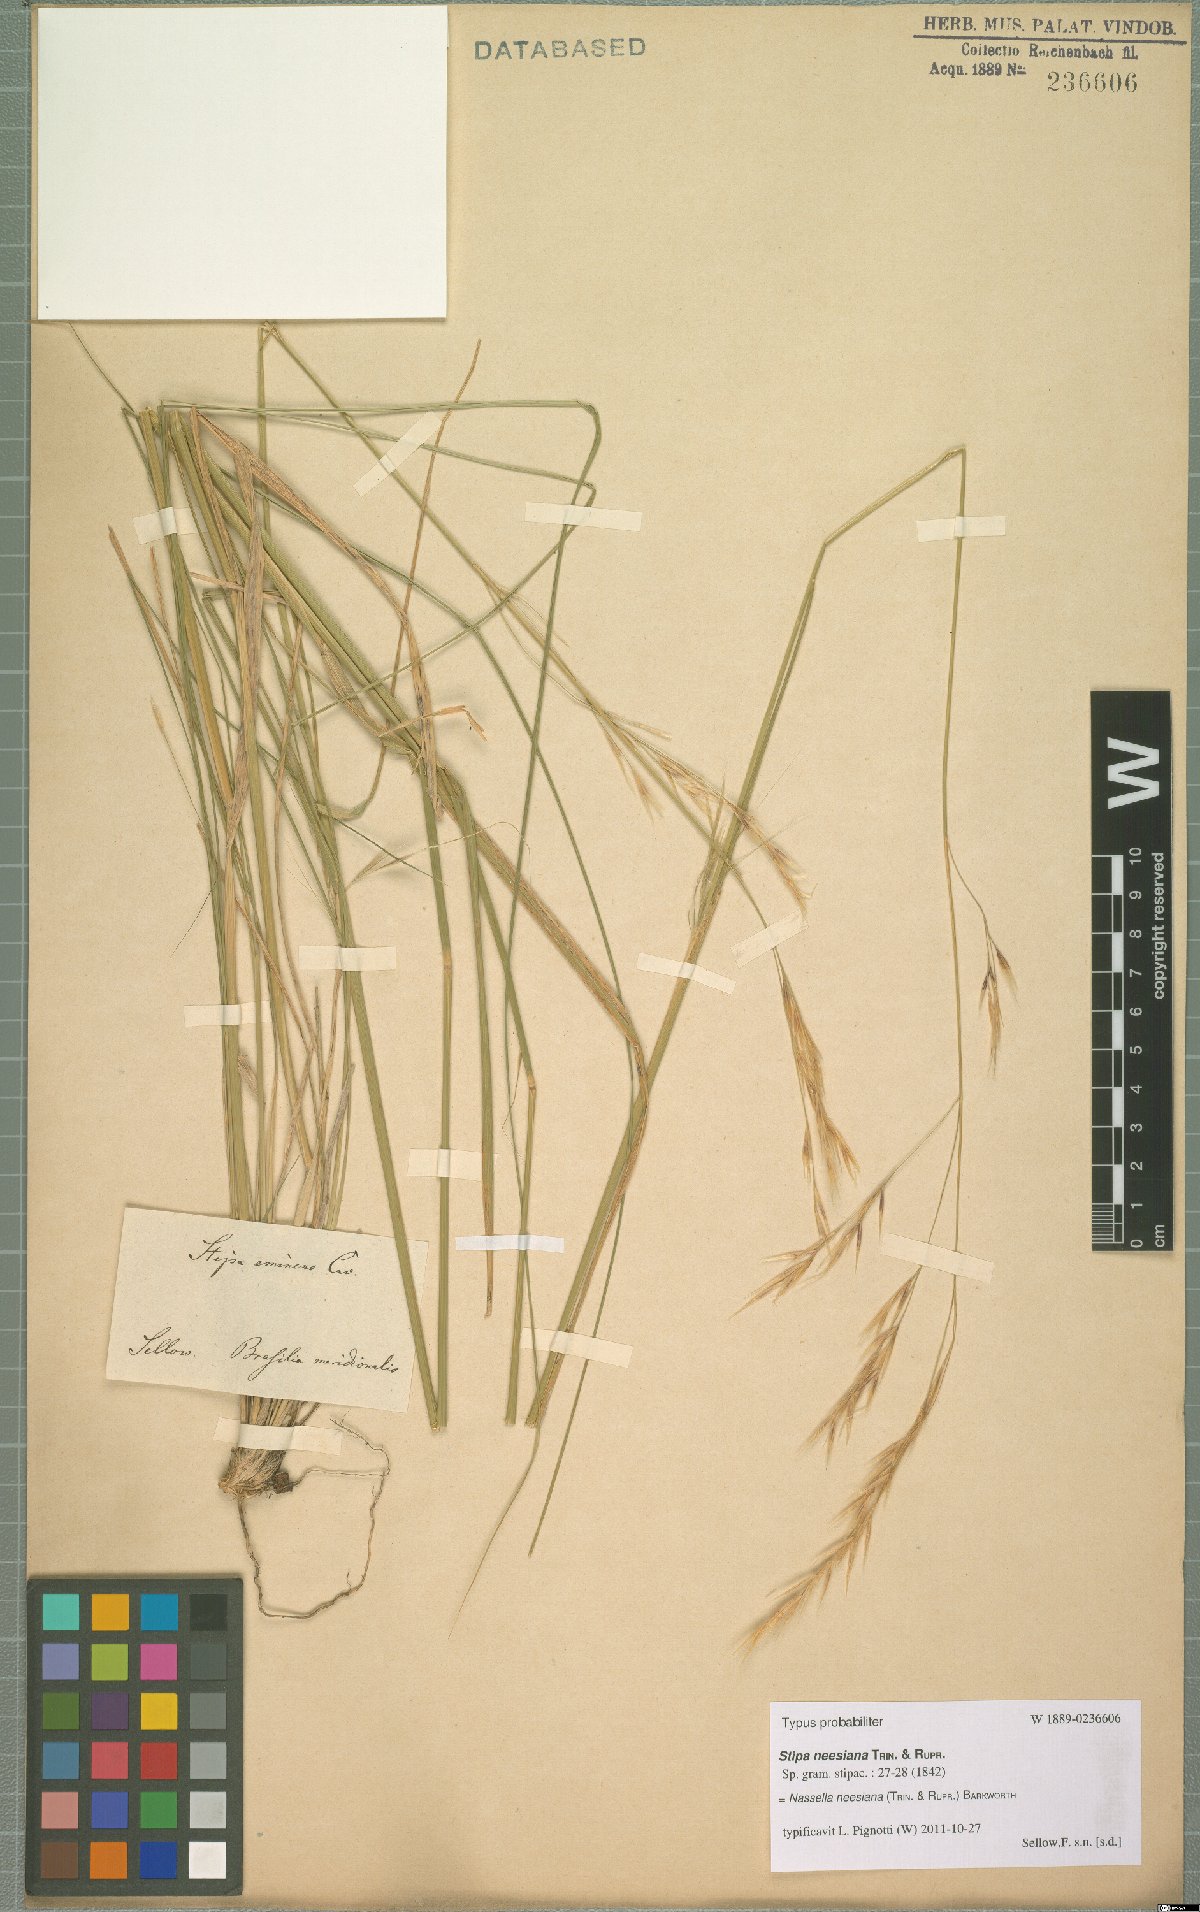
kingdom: Plantae
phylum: Tracheophyta
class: Liliopsida
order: Poales
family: Poaceae
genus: Nassella
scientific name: Nassella neesiana
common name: American needle-grass
